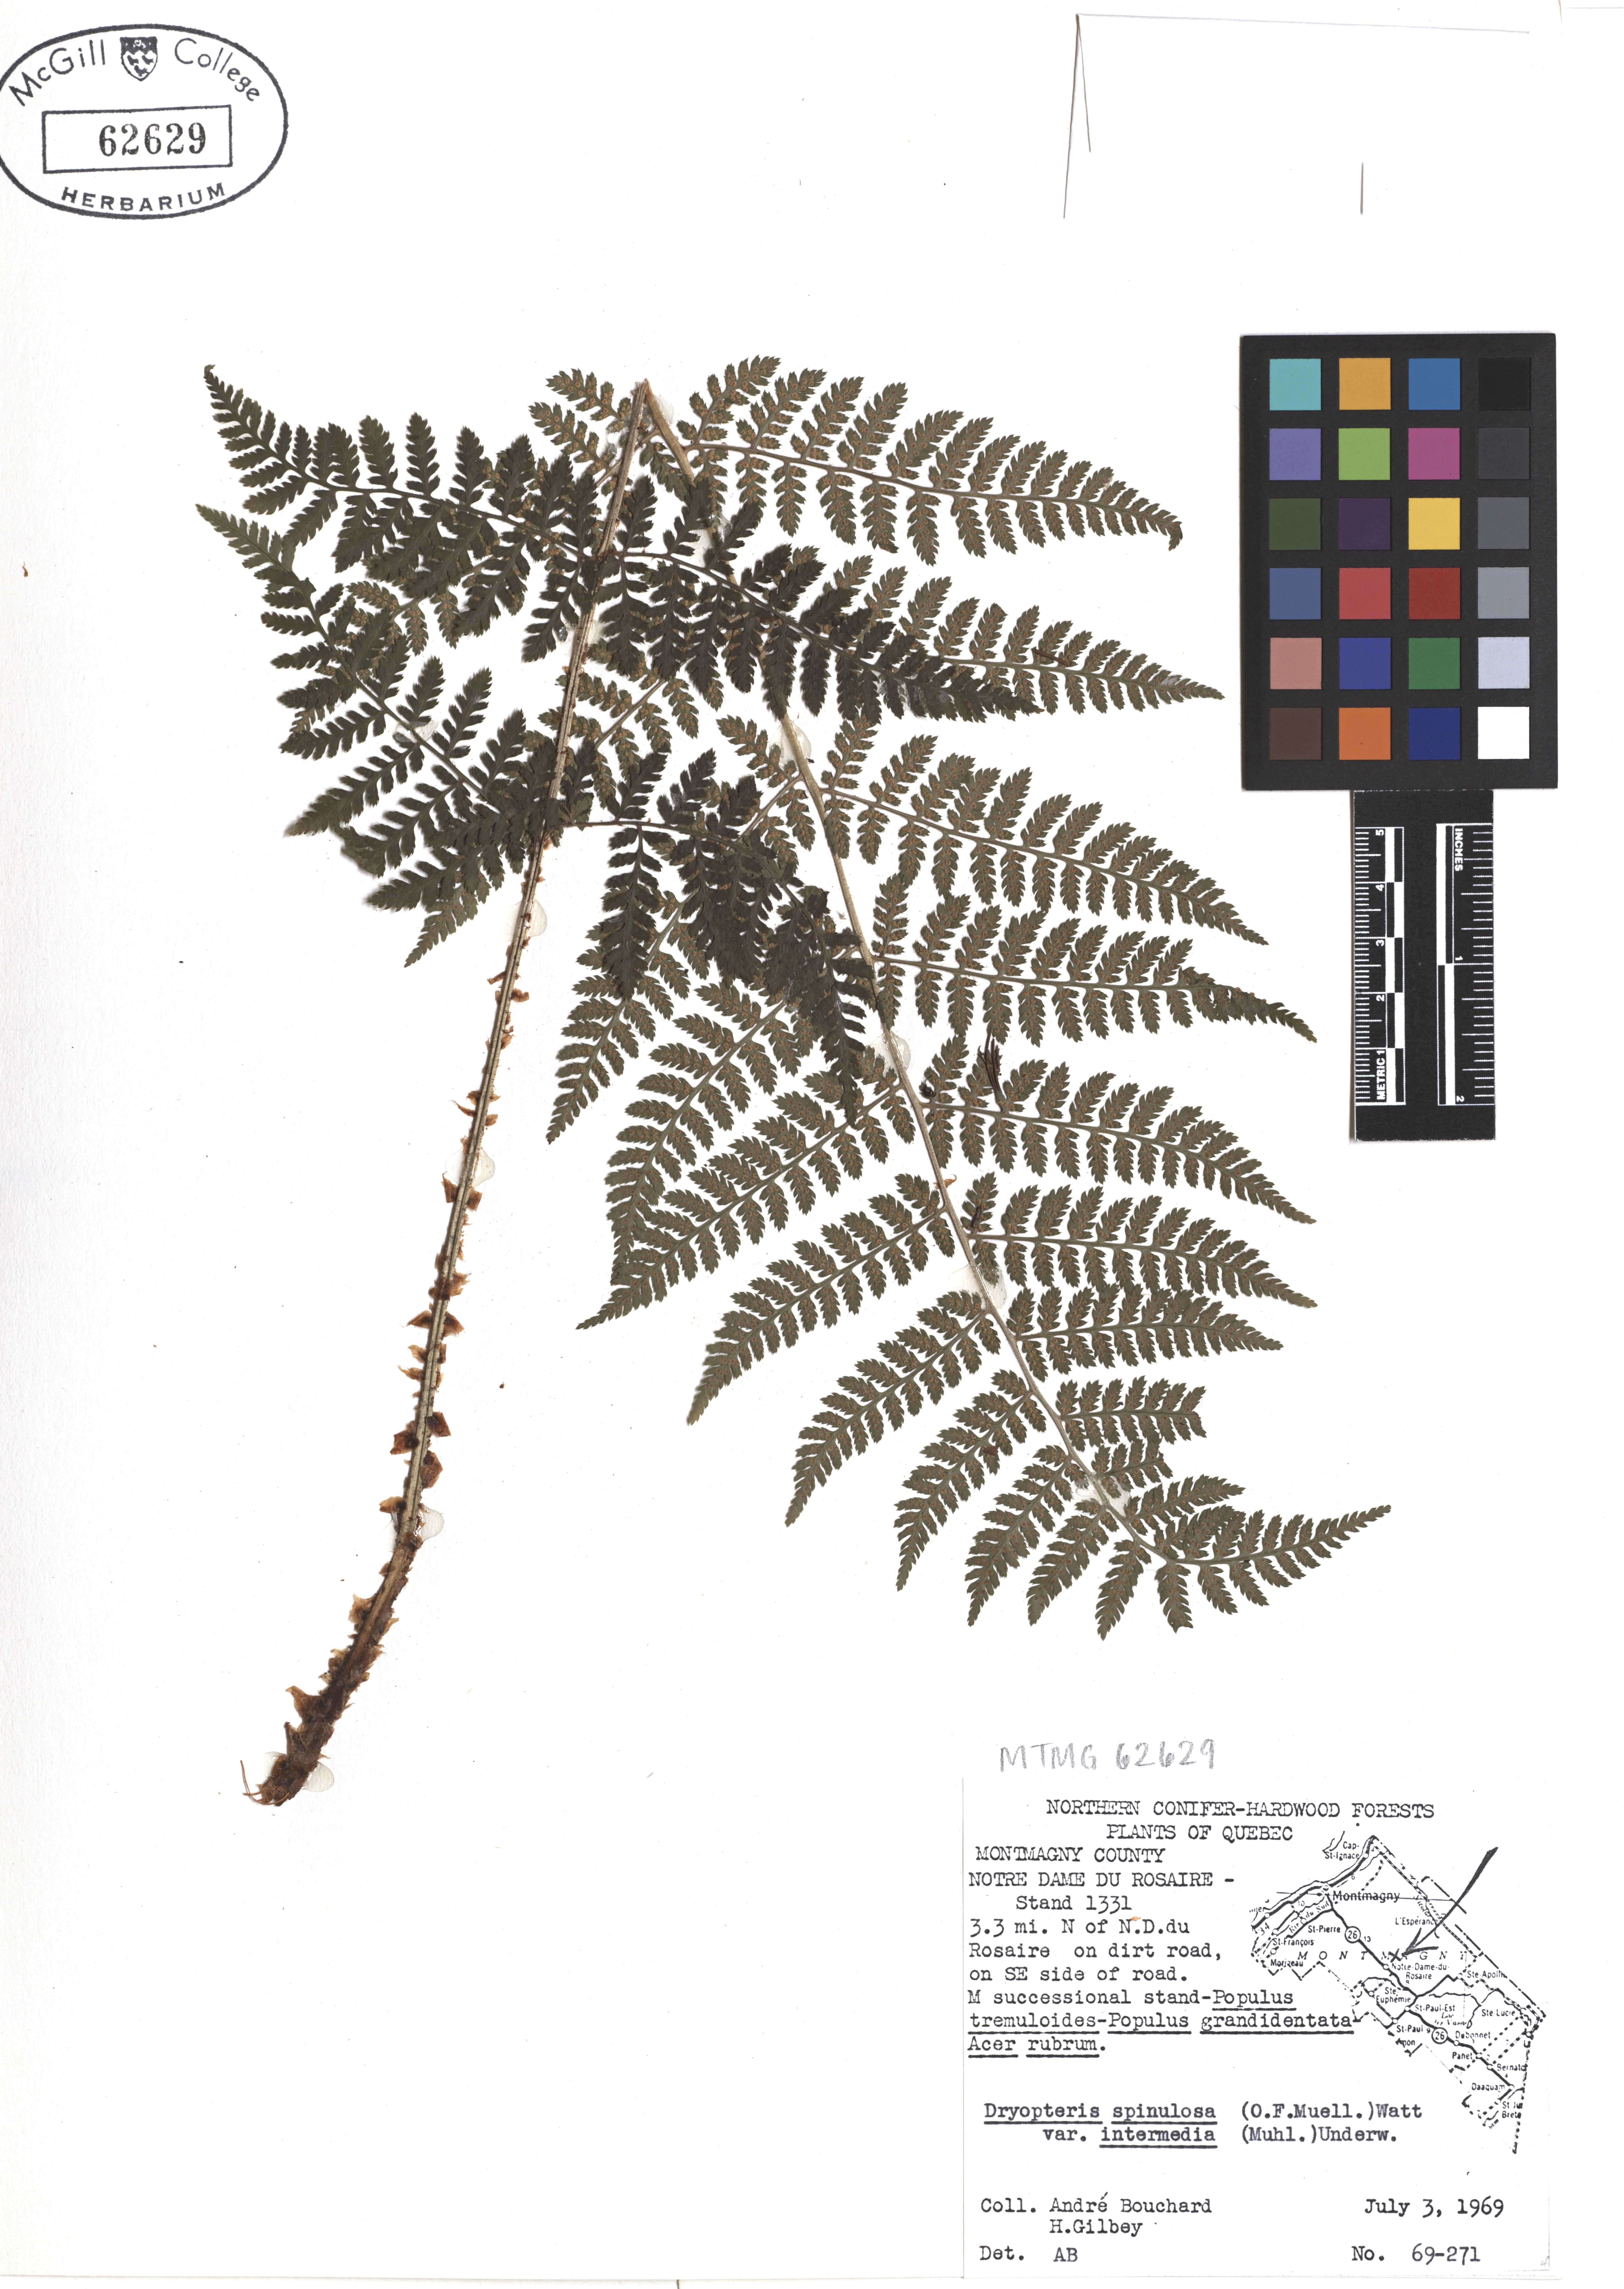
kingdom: Plantae
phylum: Tracheophyta
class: Polypodiopsida
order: Polypodiales
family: Dryopteridaceae
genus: Dryopteris
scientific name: Dryopteris intermedia
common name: Evergreen wood fern
